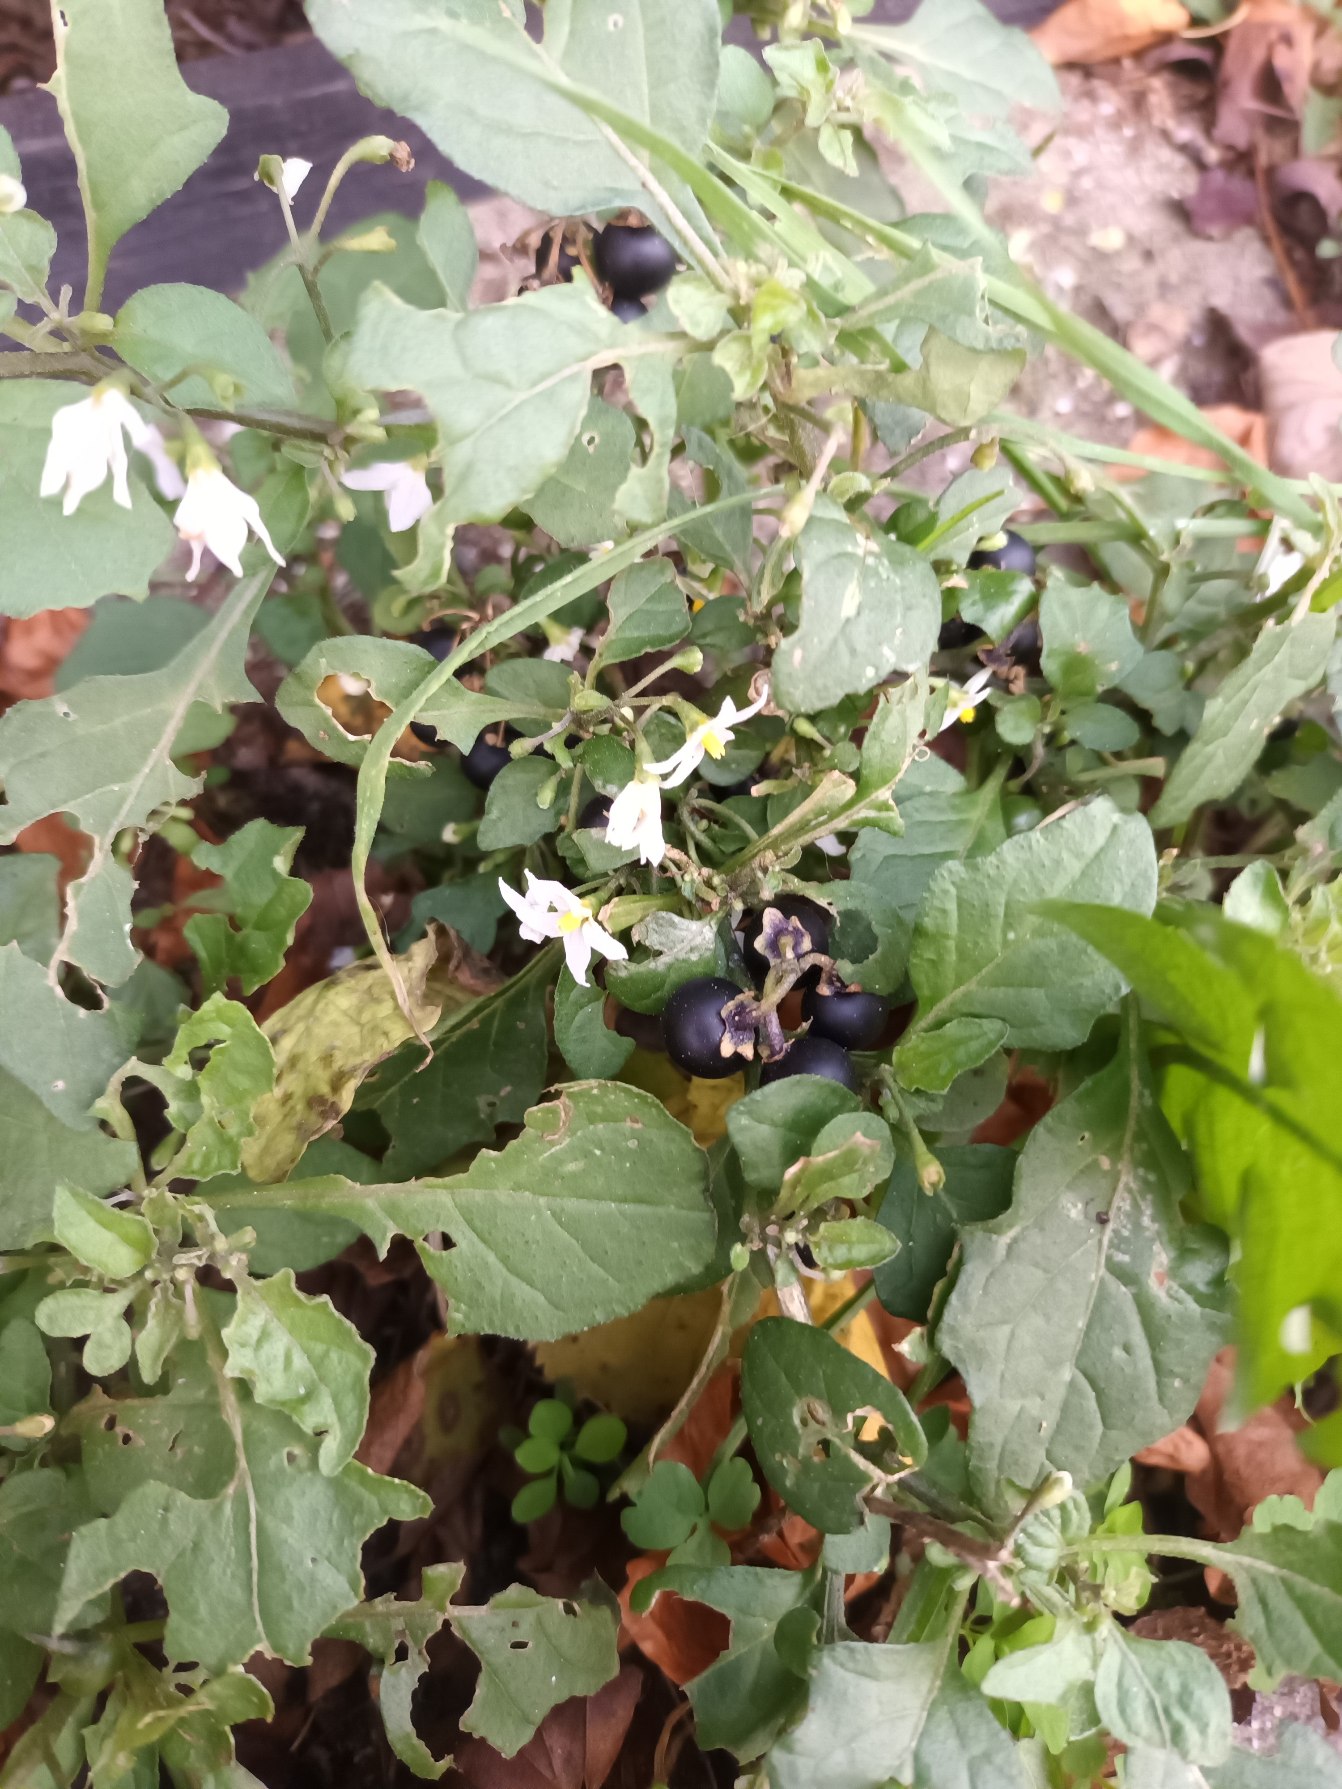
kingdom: Plantae
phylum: Tracheophyta
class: Magnoliopsida
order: Solanales
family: Solanaceae
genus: Solanum
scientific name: Solanum nigrum
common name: Sort natskygge
